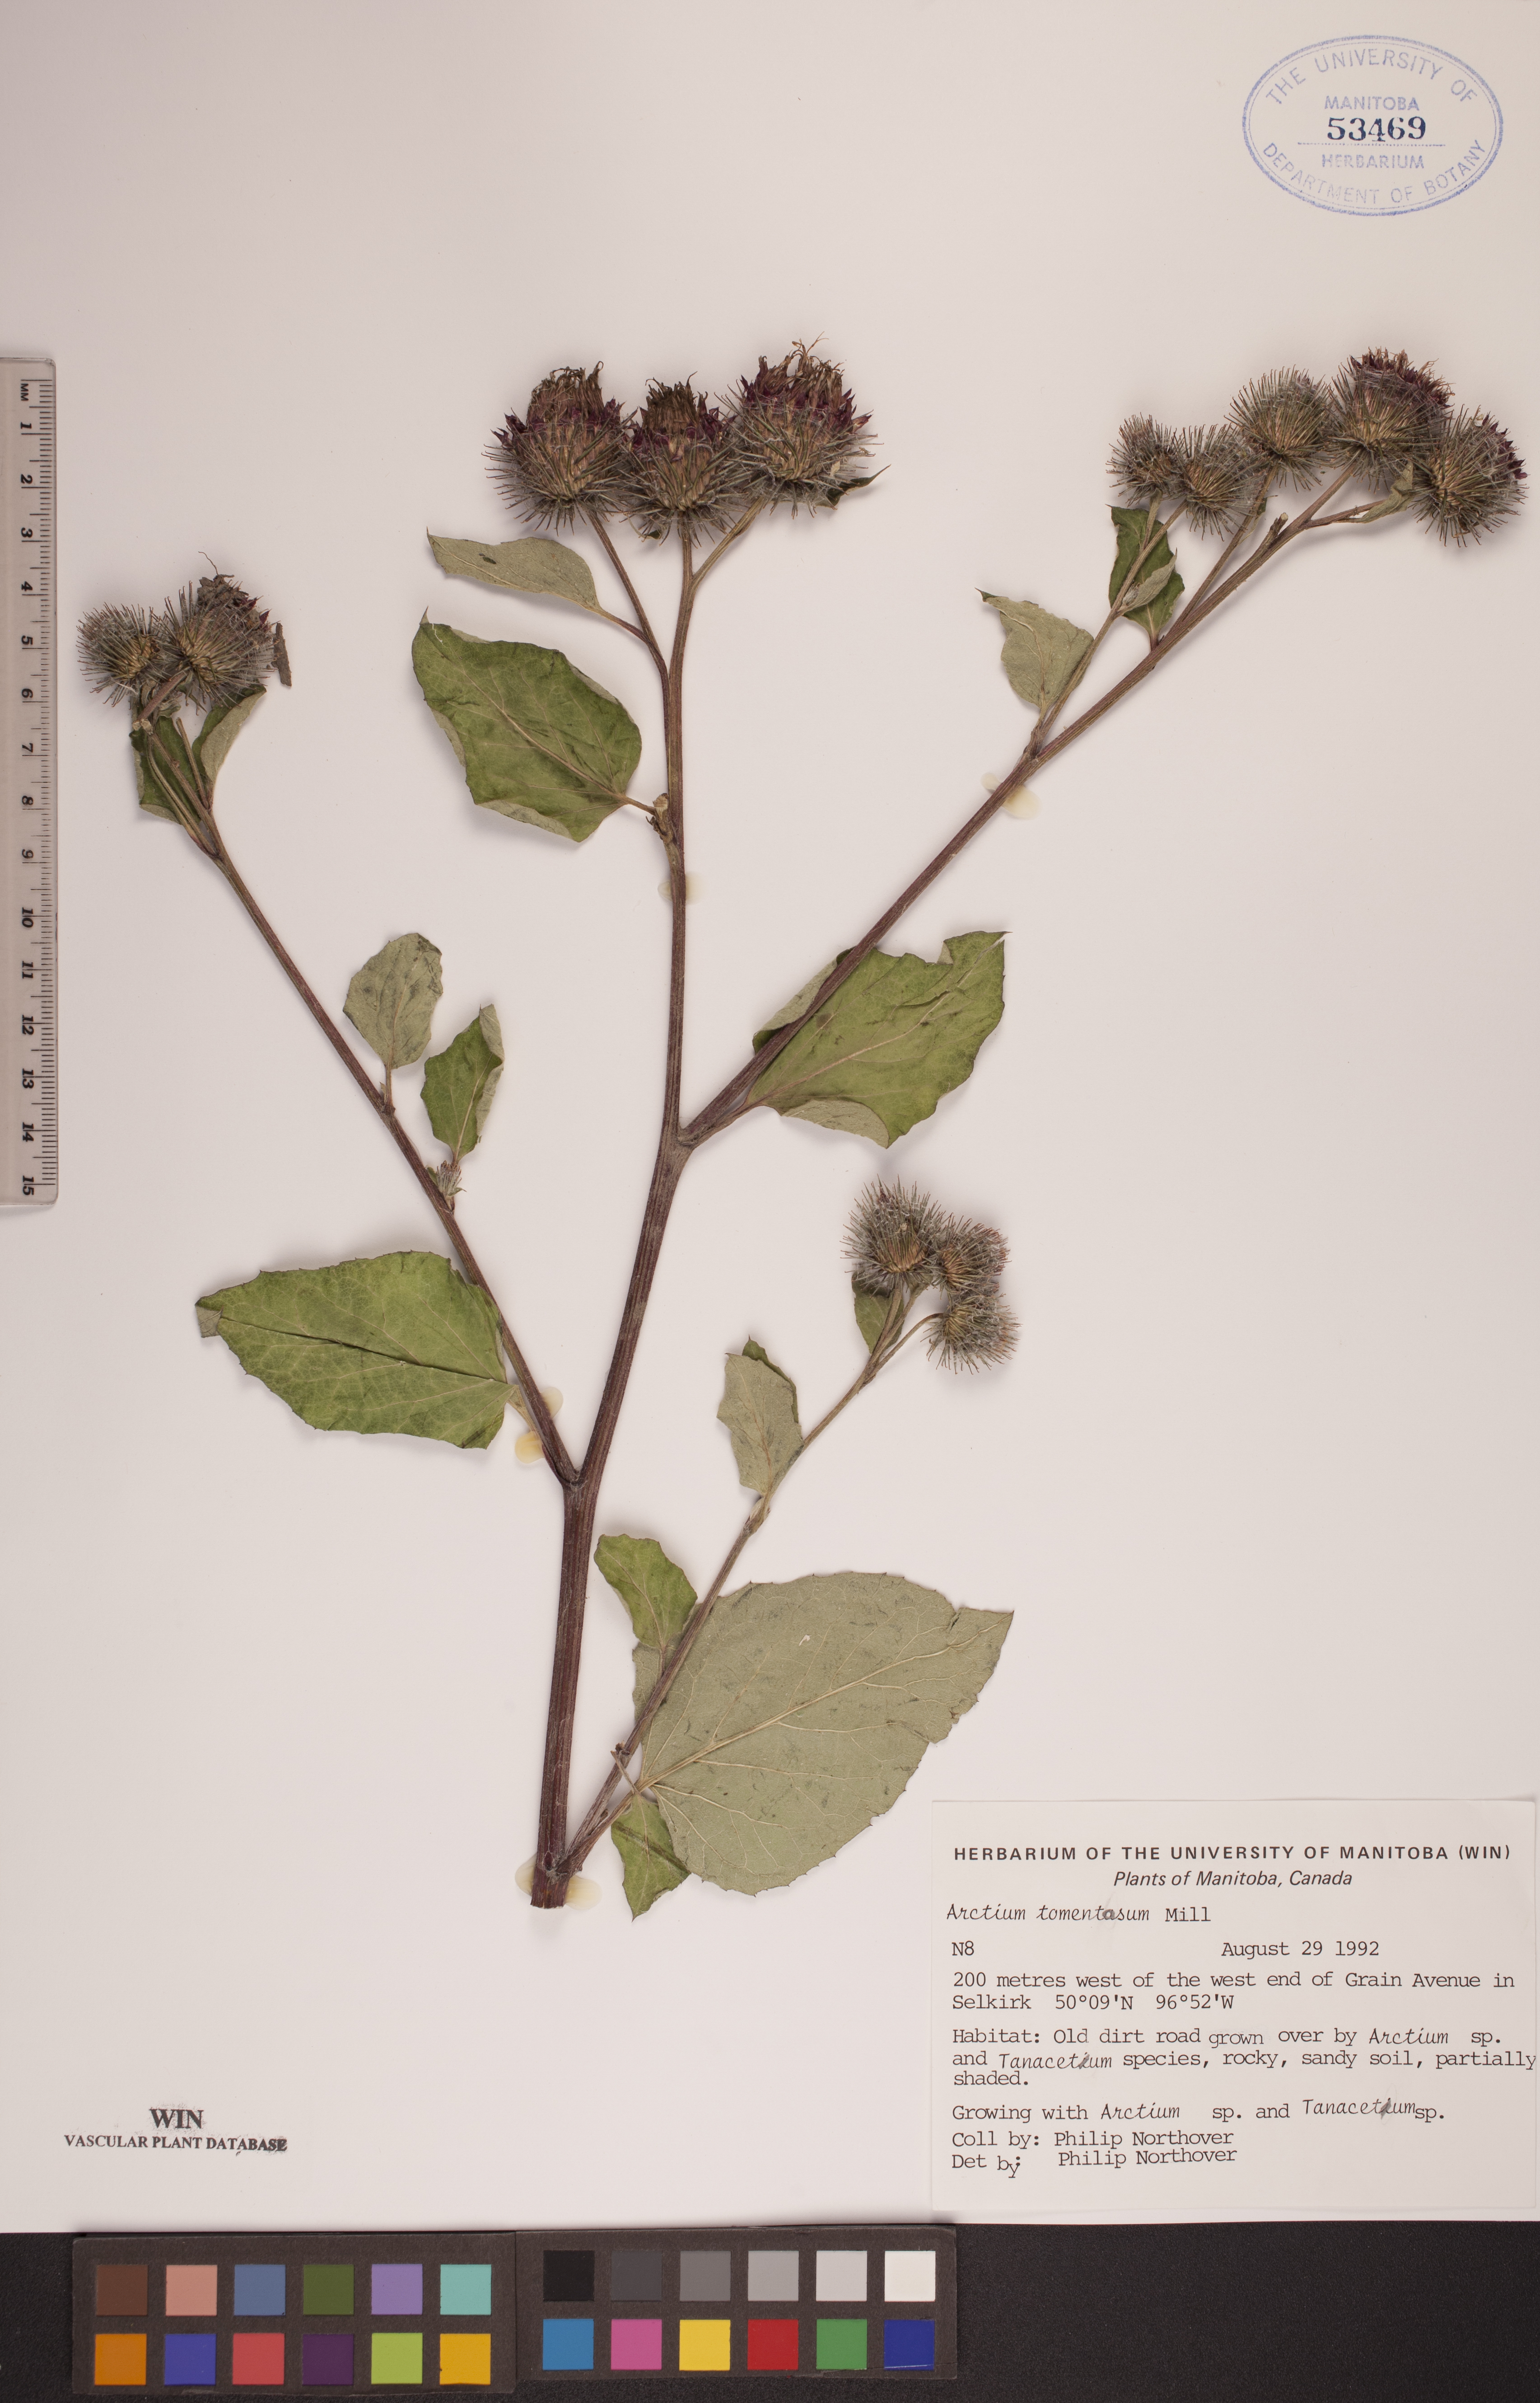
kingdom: Plantae
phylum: Tracheophyta
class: Magnoliopsida
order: Asterales
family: Asteraceae
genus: Arctium
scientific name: Arctium tomentosum
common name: Woolly burdock
